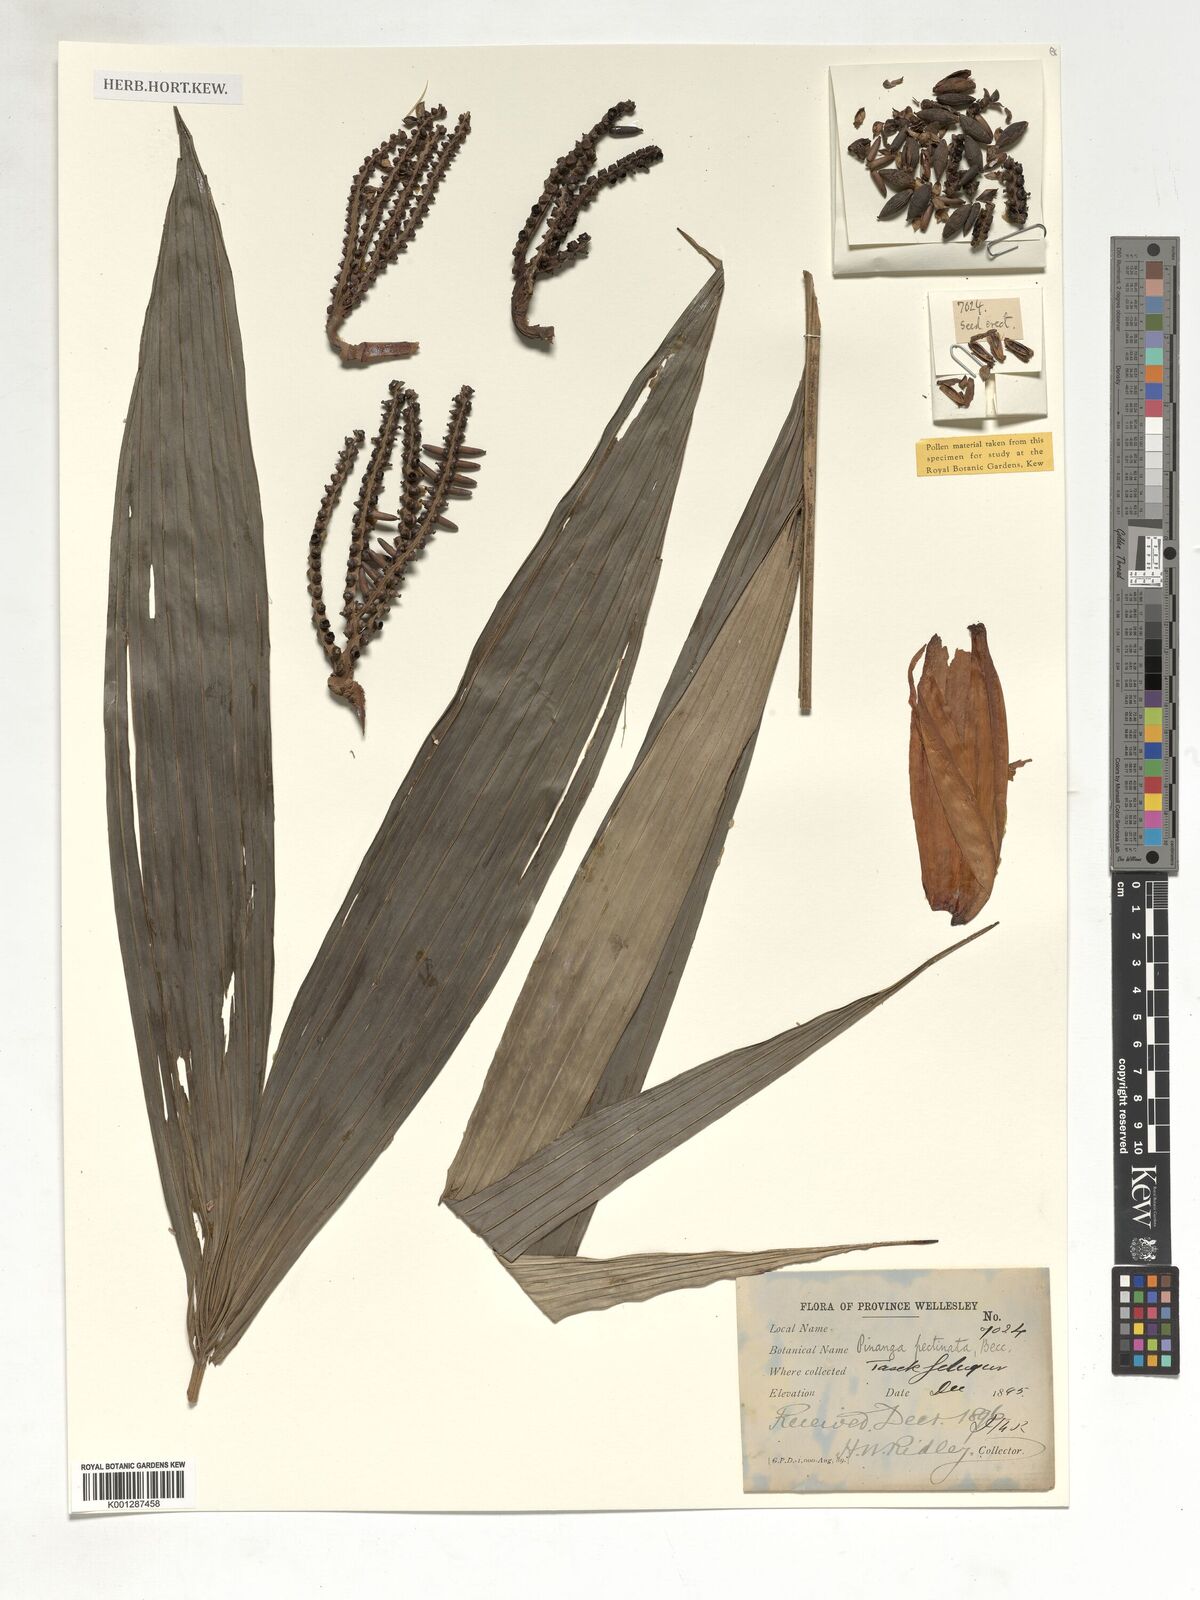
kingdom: Plantae
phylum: Tracheophyta
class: Liliopsida
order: Arecales
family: Arecaceae
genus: Pinanga
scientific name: Pinanga pectinata
